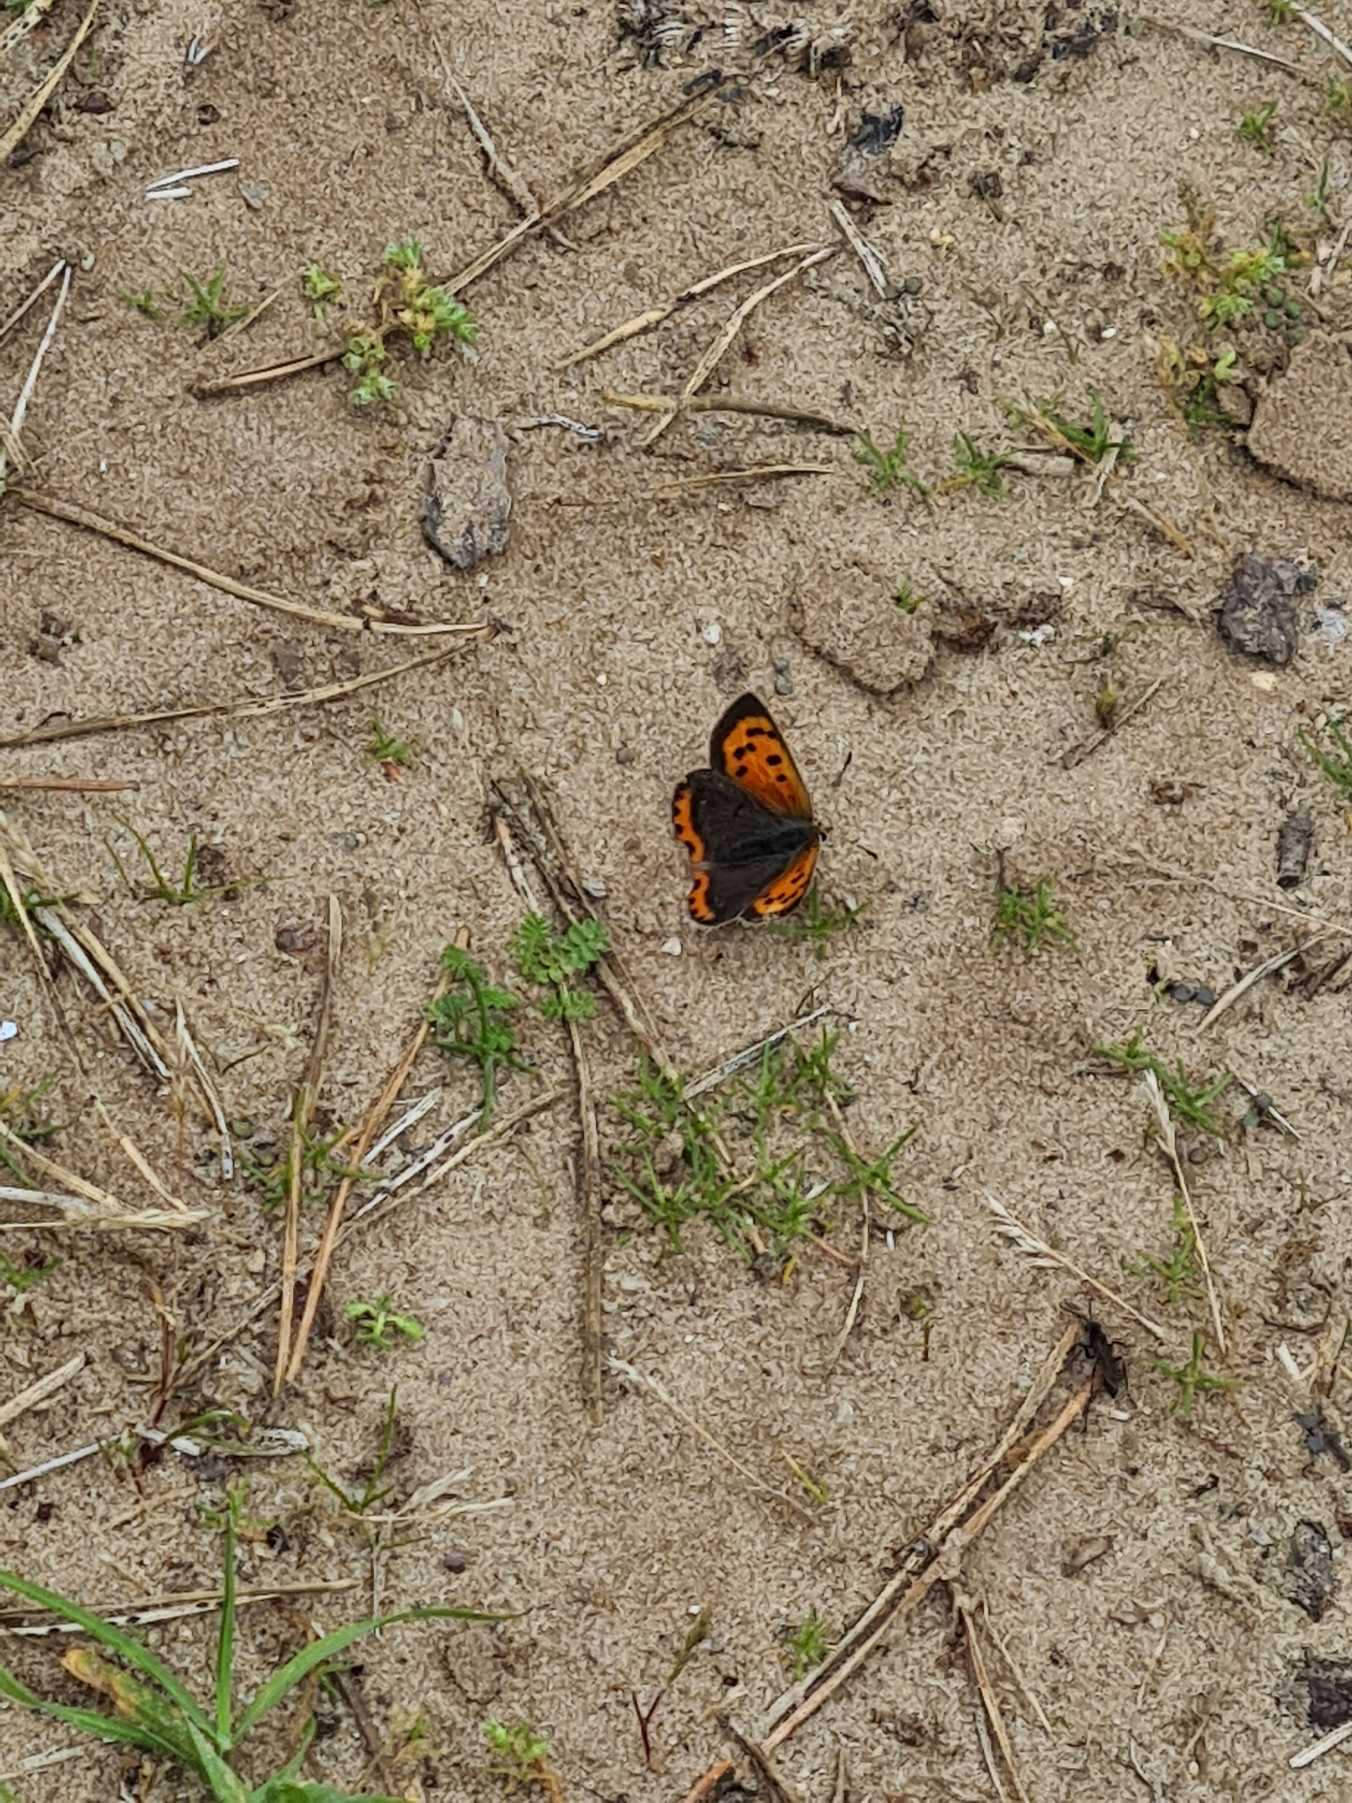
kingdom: Animalia
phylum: Arthropoda
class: Insecta
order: Lepidoptera
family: Lycaenidae
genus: Lycaena
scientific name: Lycaena phlaeas
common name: Lille ildfugl
